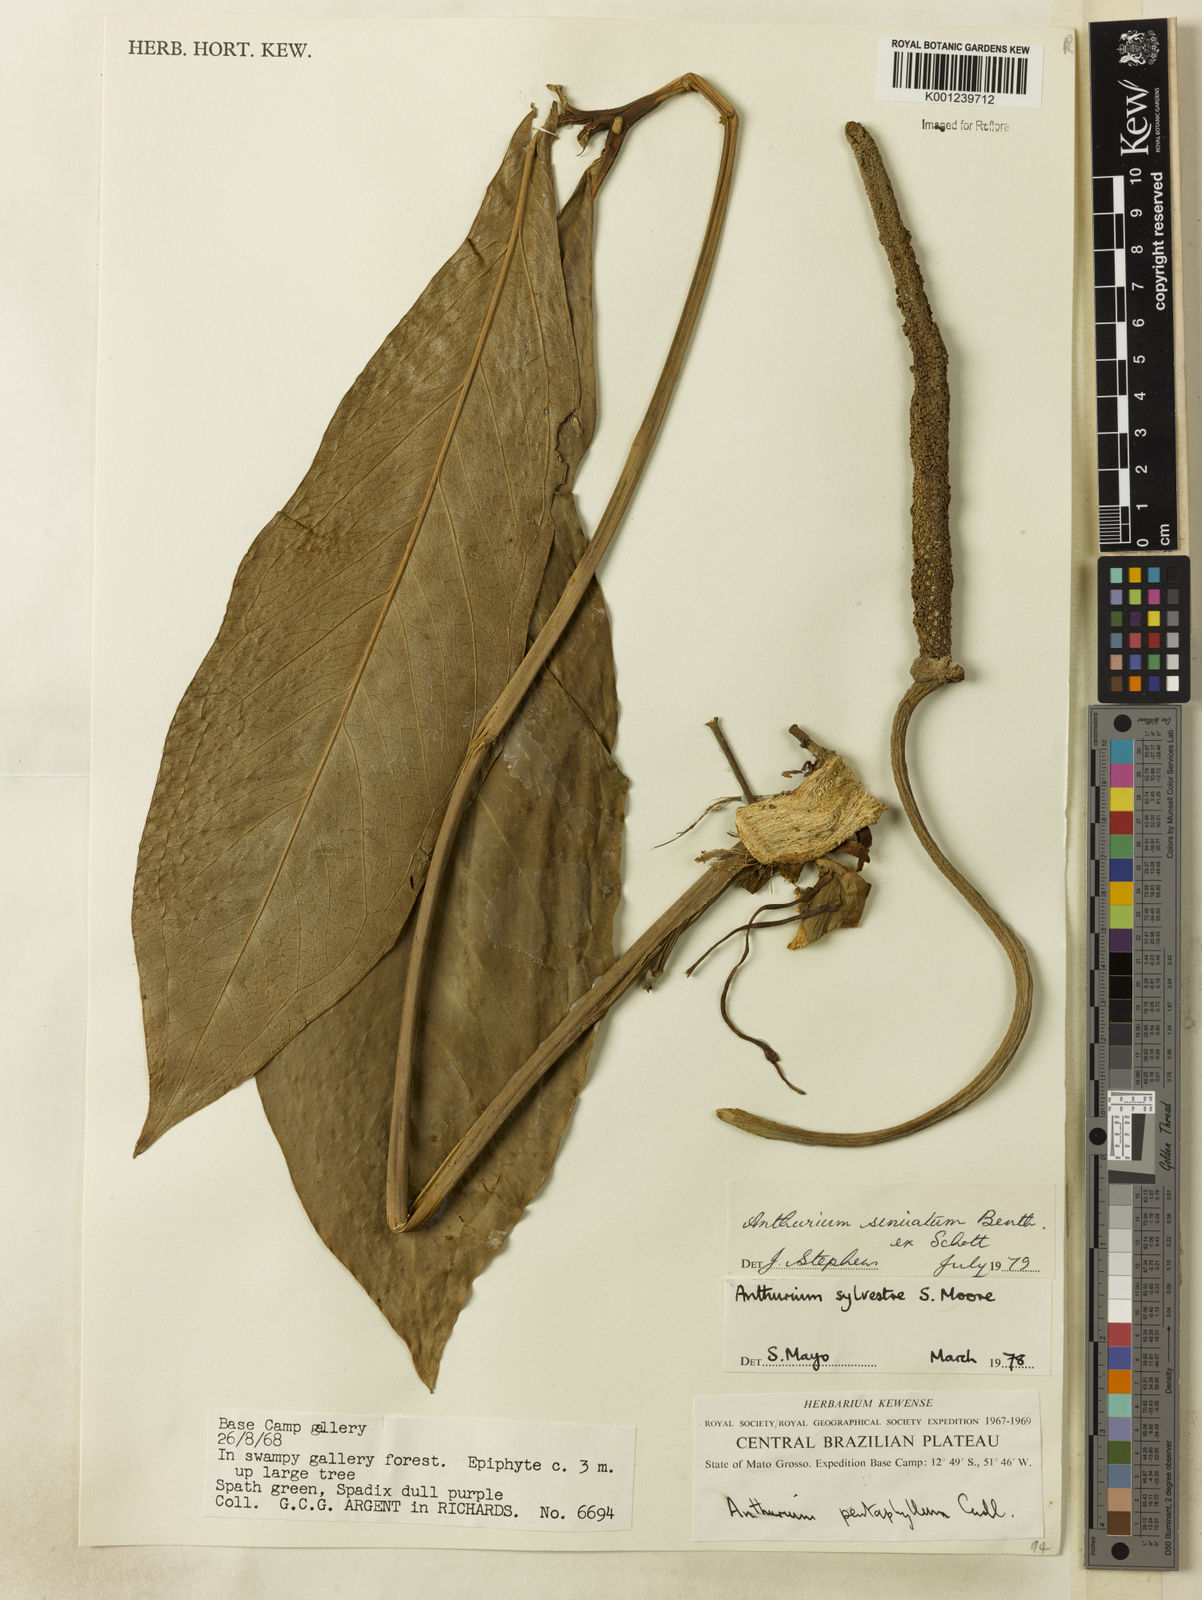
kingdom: Plantae
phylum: Tracheophyta
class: Liliopsida
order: Alismatales
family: Araceae
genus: Anthurium
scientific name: Anthurium sinuatum
